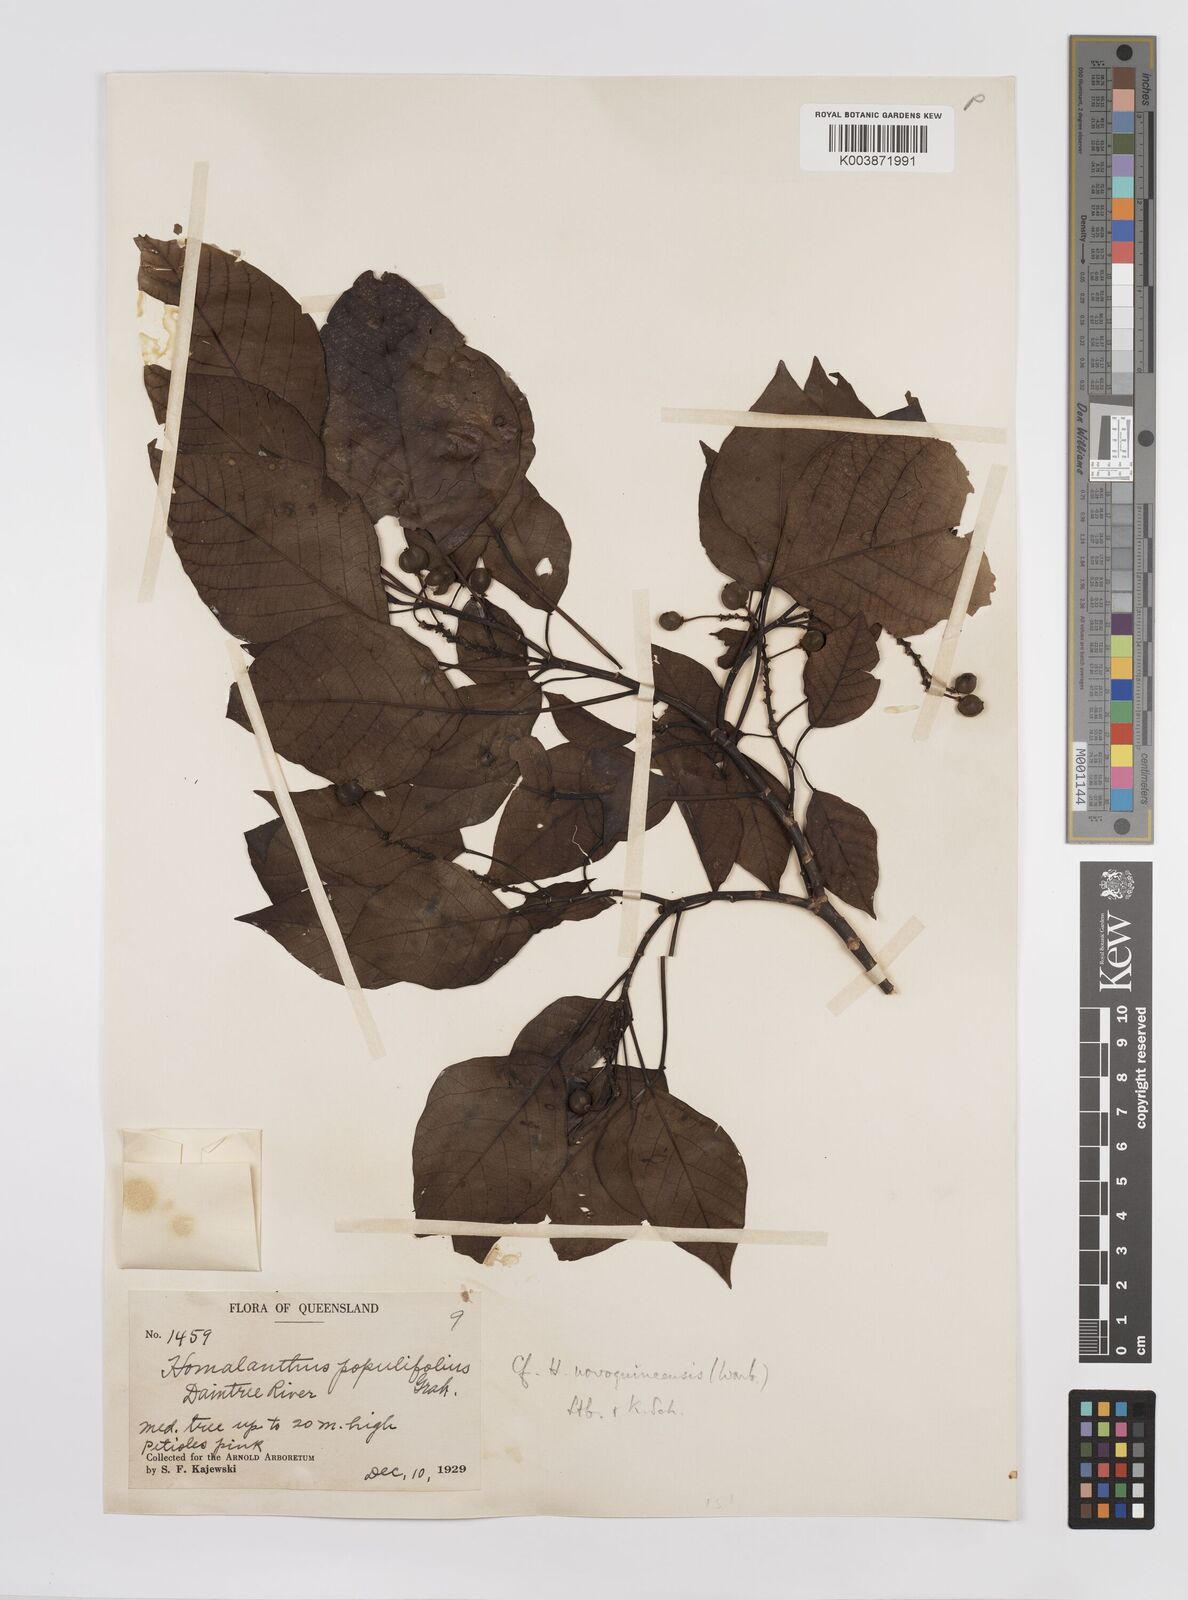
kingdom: Plantae
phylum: Tracheophyta
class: Magnoliopsida
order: Malpighiales
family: Euphorbiaceae
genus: Homalanthus
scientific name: Homalanthus novoguineensis
